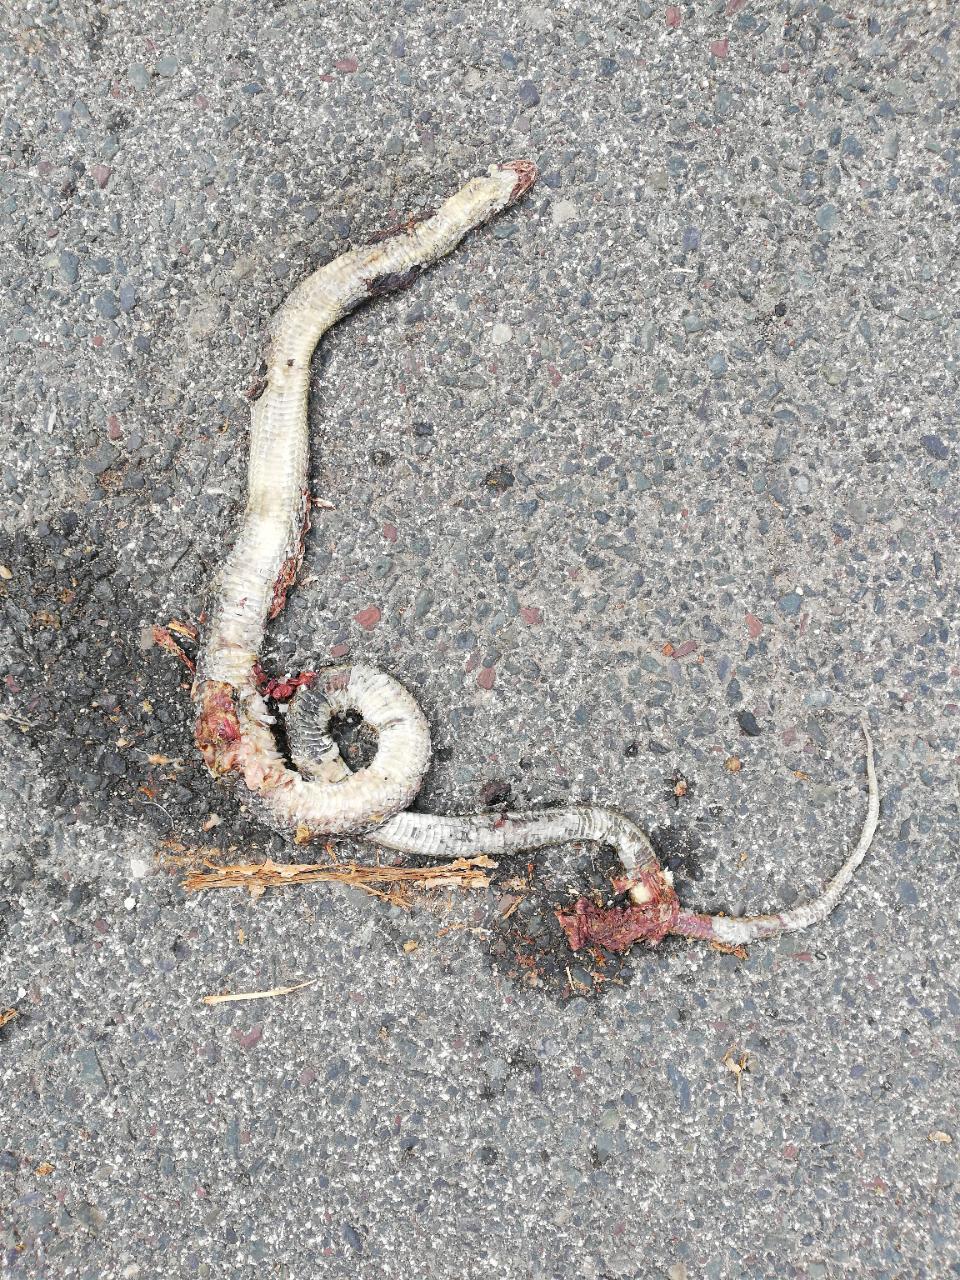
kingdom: Animalia
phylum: Chordata
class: Squamata
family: Colubridae
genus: Zamenis
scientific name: Zamenis longissimus
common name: Aesculapean snake
